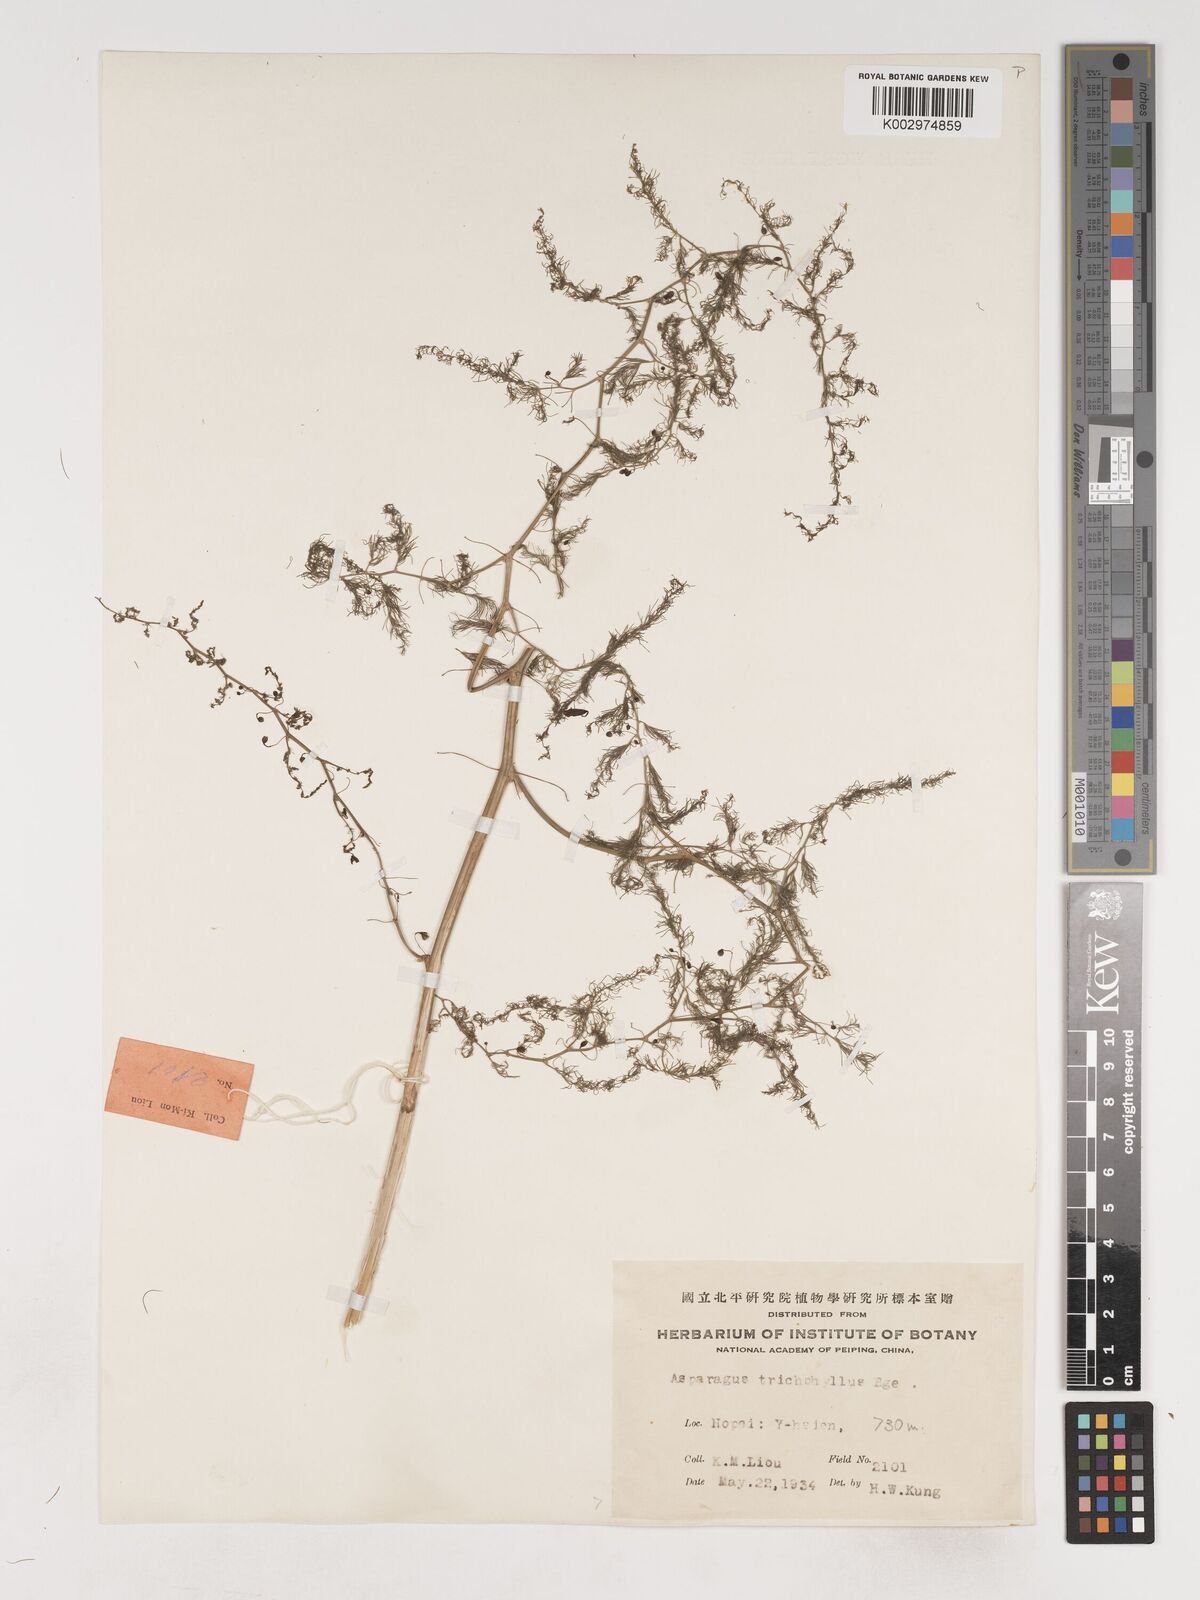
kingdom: Plantae
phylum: Tracheophyta
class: Liliopsida
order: Asparagales
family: Asparagaceae
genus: Asparagus
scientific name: Asparagus trichophyllus
